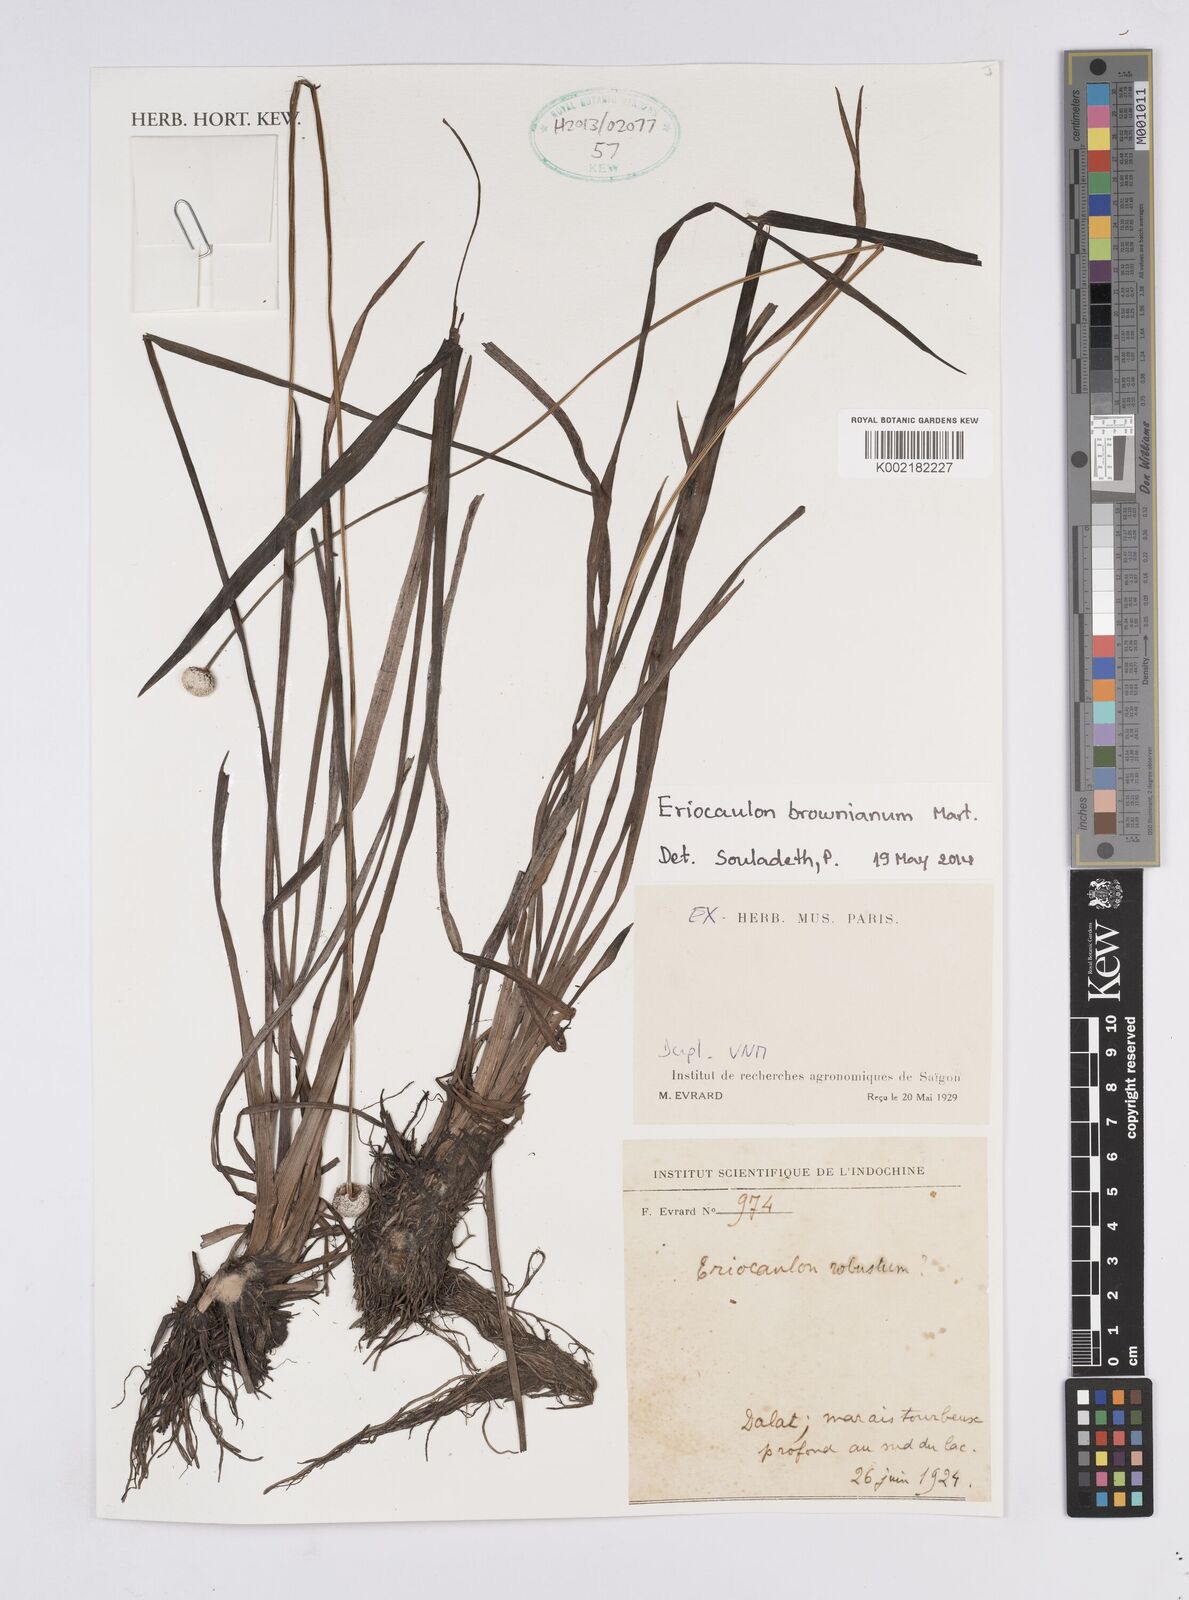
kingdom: Plantae
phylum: Tracheophyta
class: Liliopsida
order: Poales
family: Eriocaulaceae
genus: Eriocaulon
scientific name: Eriocaulon brownianum
